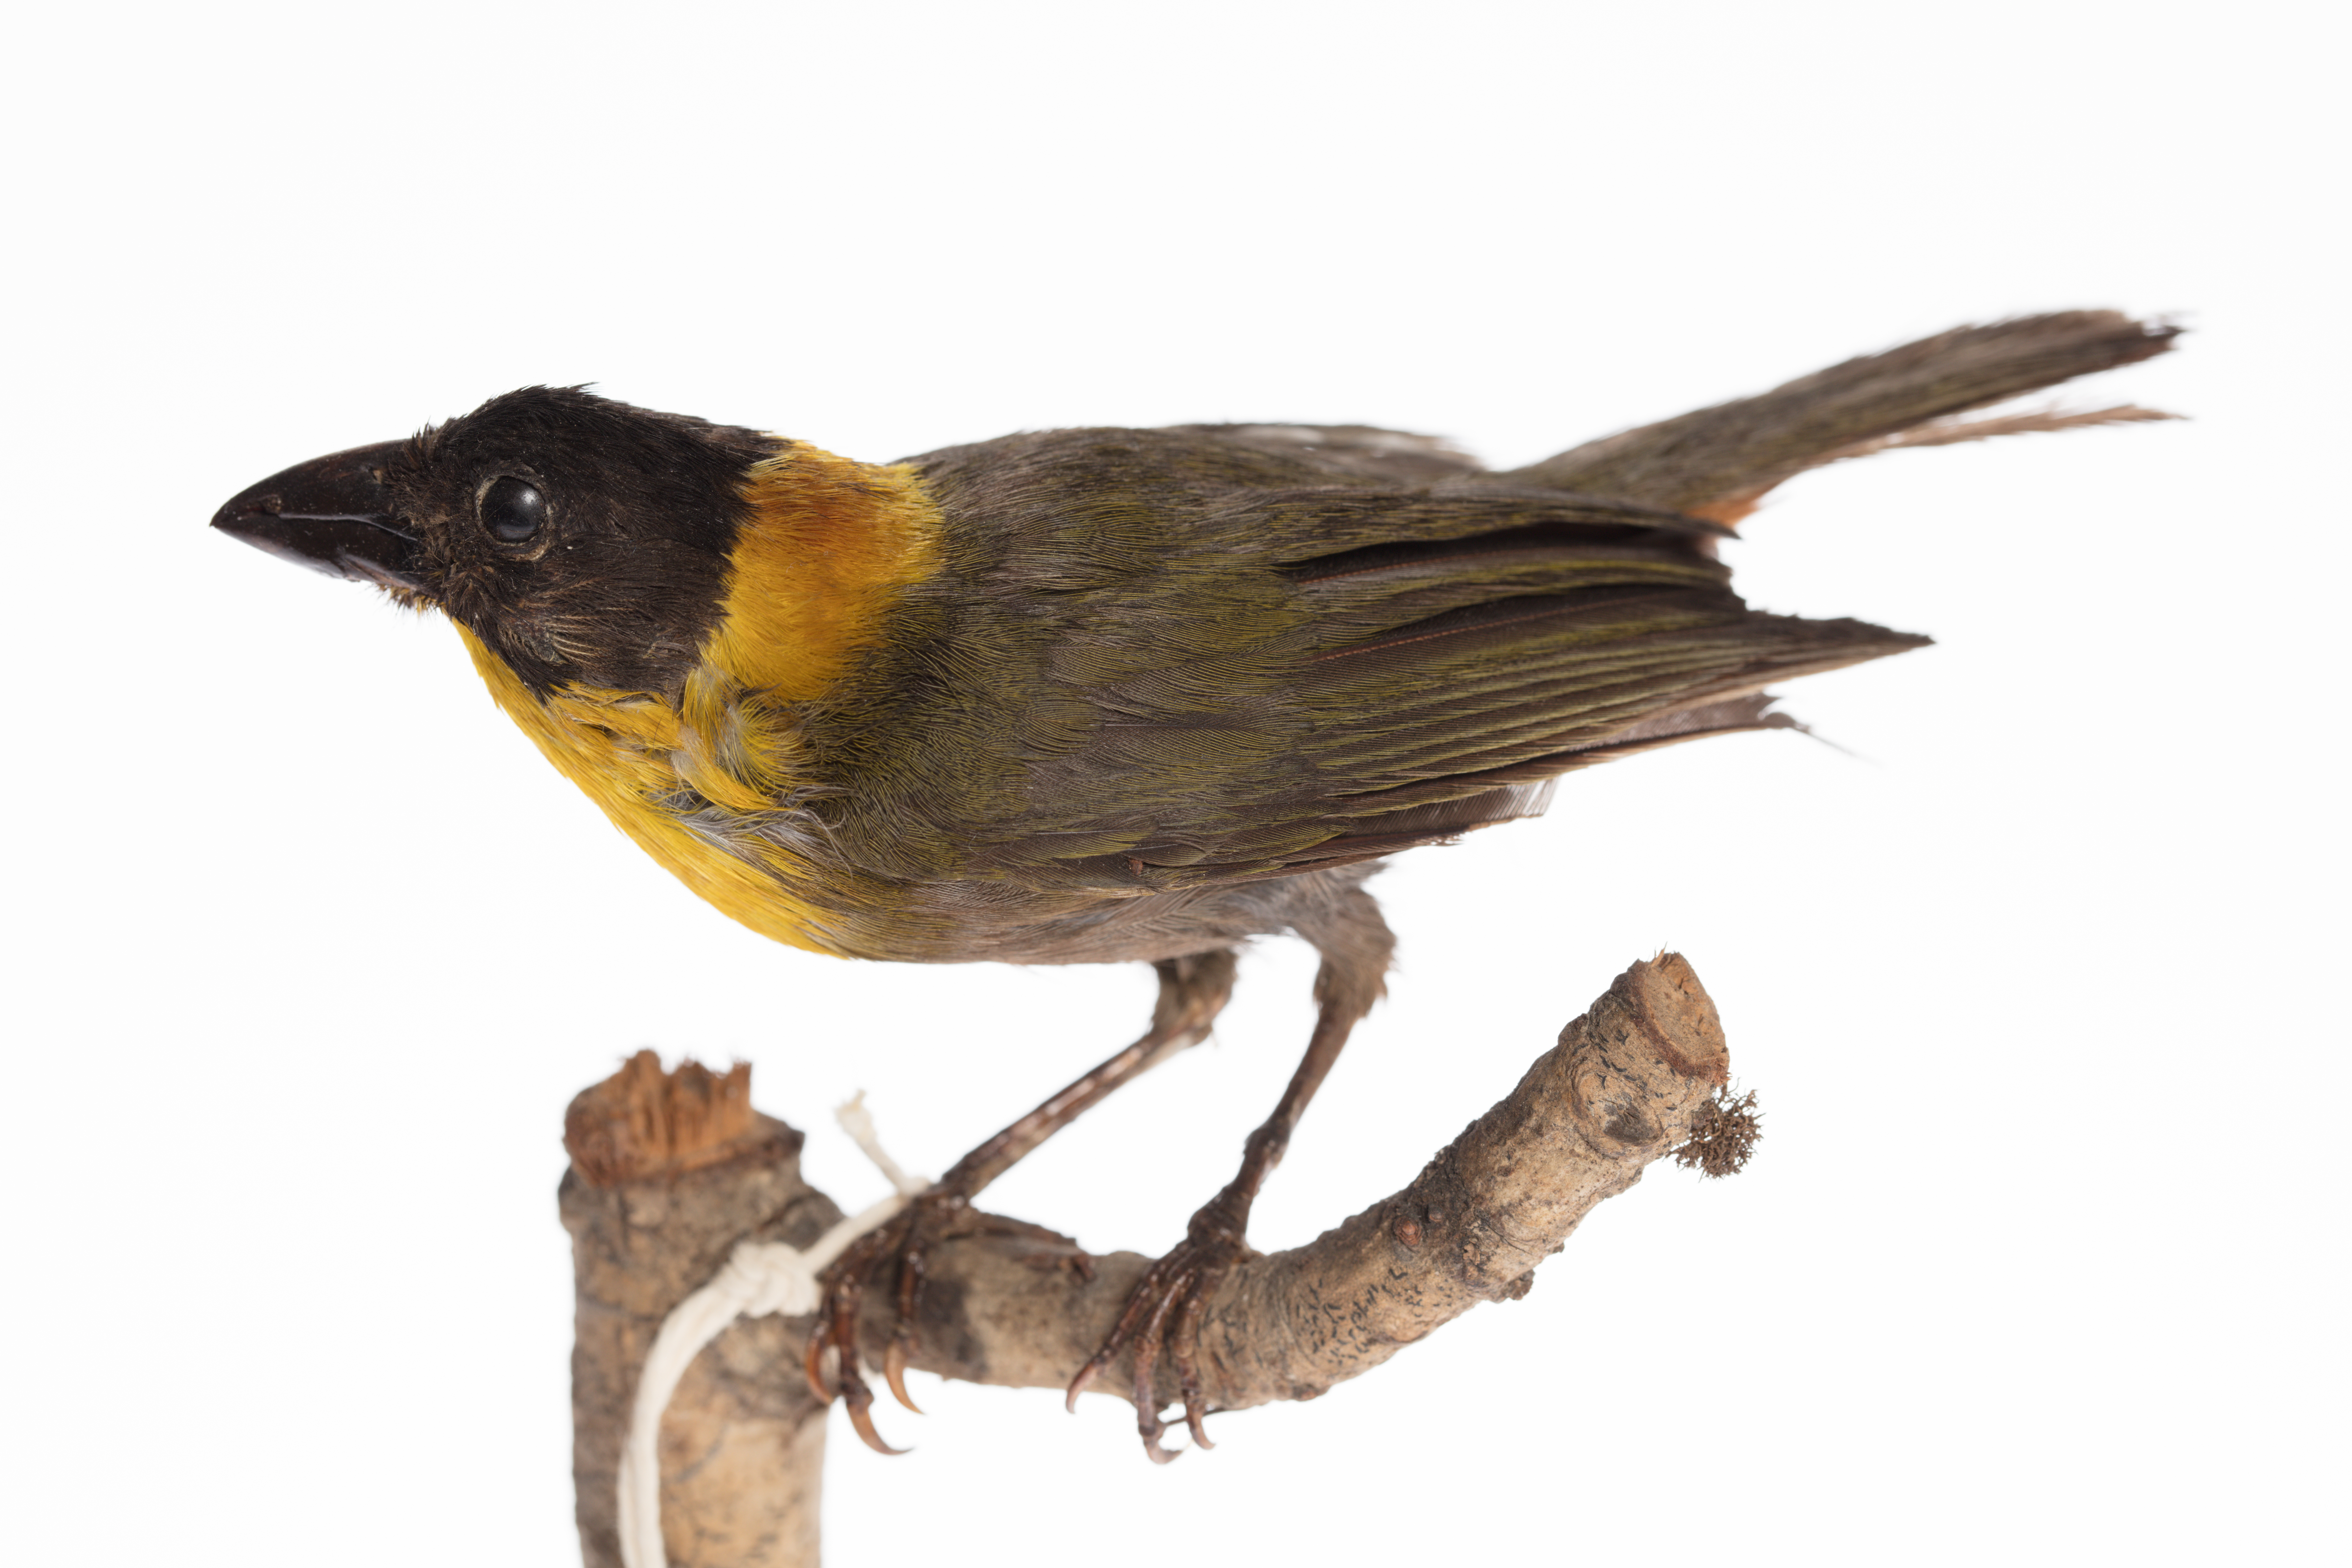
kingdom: Animalia
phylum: Chordata
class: Aves
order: Passeriformes
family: Ploceidae
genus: Ploceus
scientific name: Ploceus nelicourvi
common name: Nelicourvi weaver
